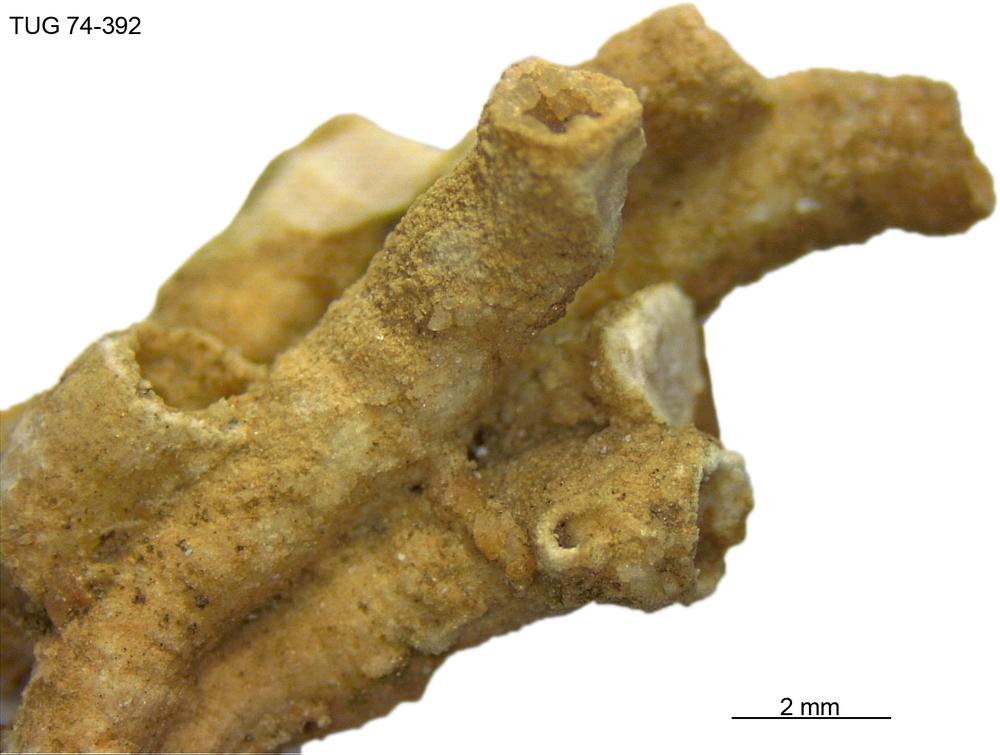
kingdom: Animalia
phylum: Echinodermata
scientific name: Echinodermata
